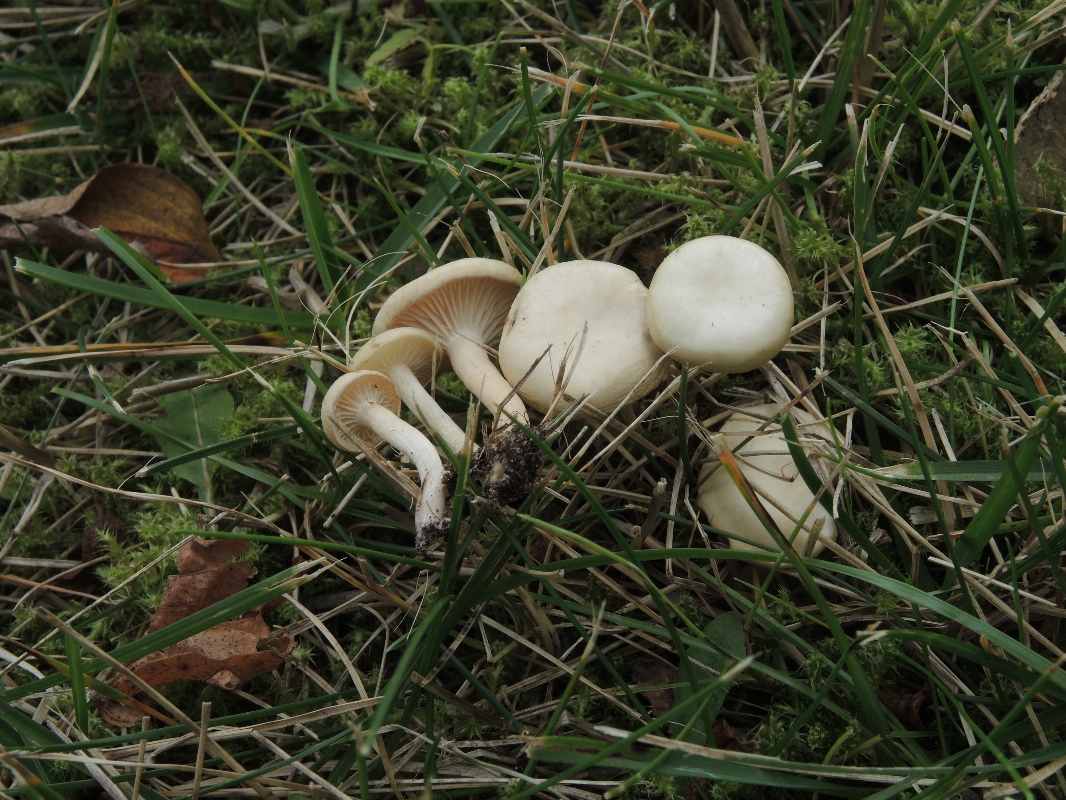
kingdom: Fungi
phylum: Basidiomycota
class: Agaricomycetes
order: Agaricales
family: Tricholomataceae
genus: Clitocybe
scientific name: Clitocybe agrestis
